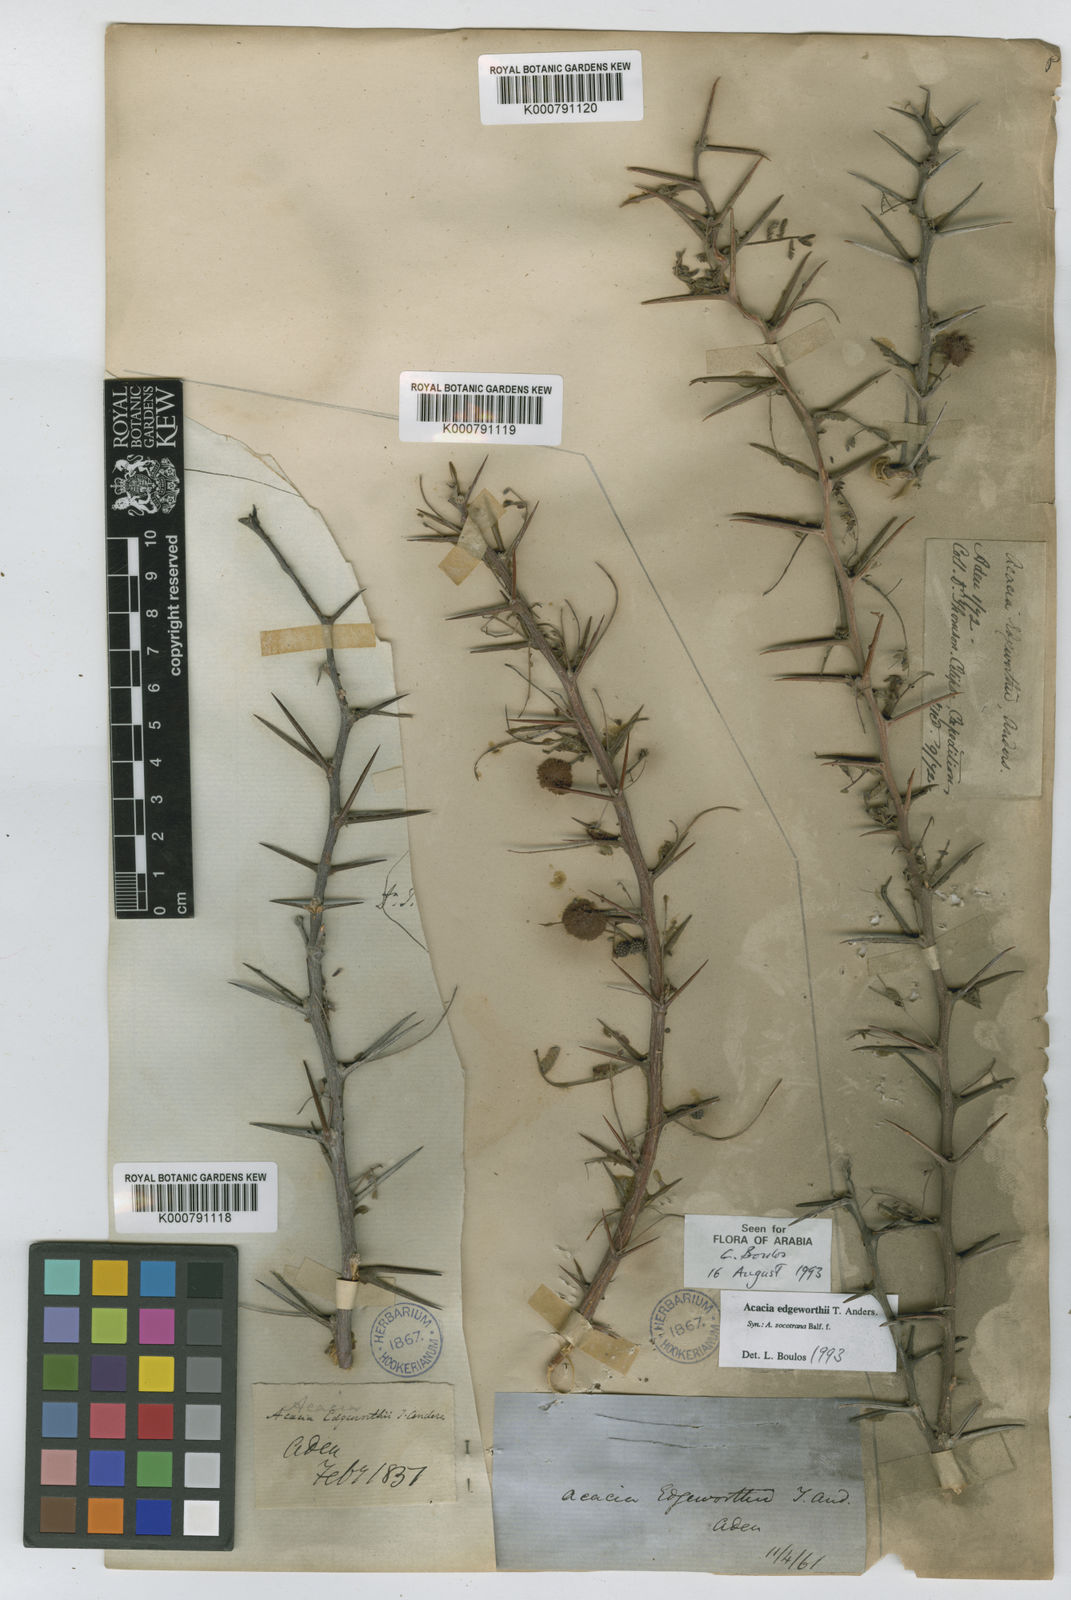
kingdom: Plantae
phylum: Tracheophyta
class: Magnoliopsida
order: Fabales
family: Fabaceae
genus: Vachellia
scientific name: Vachellia edgeworthii
